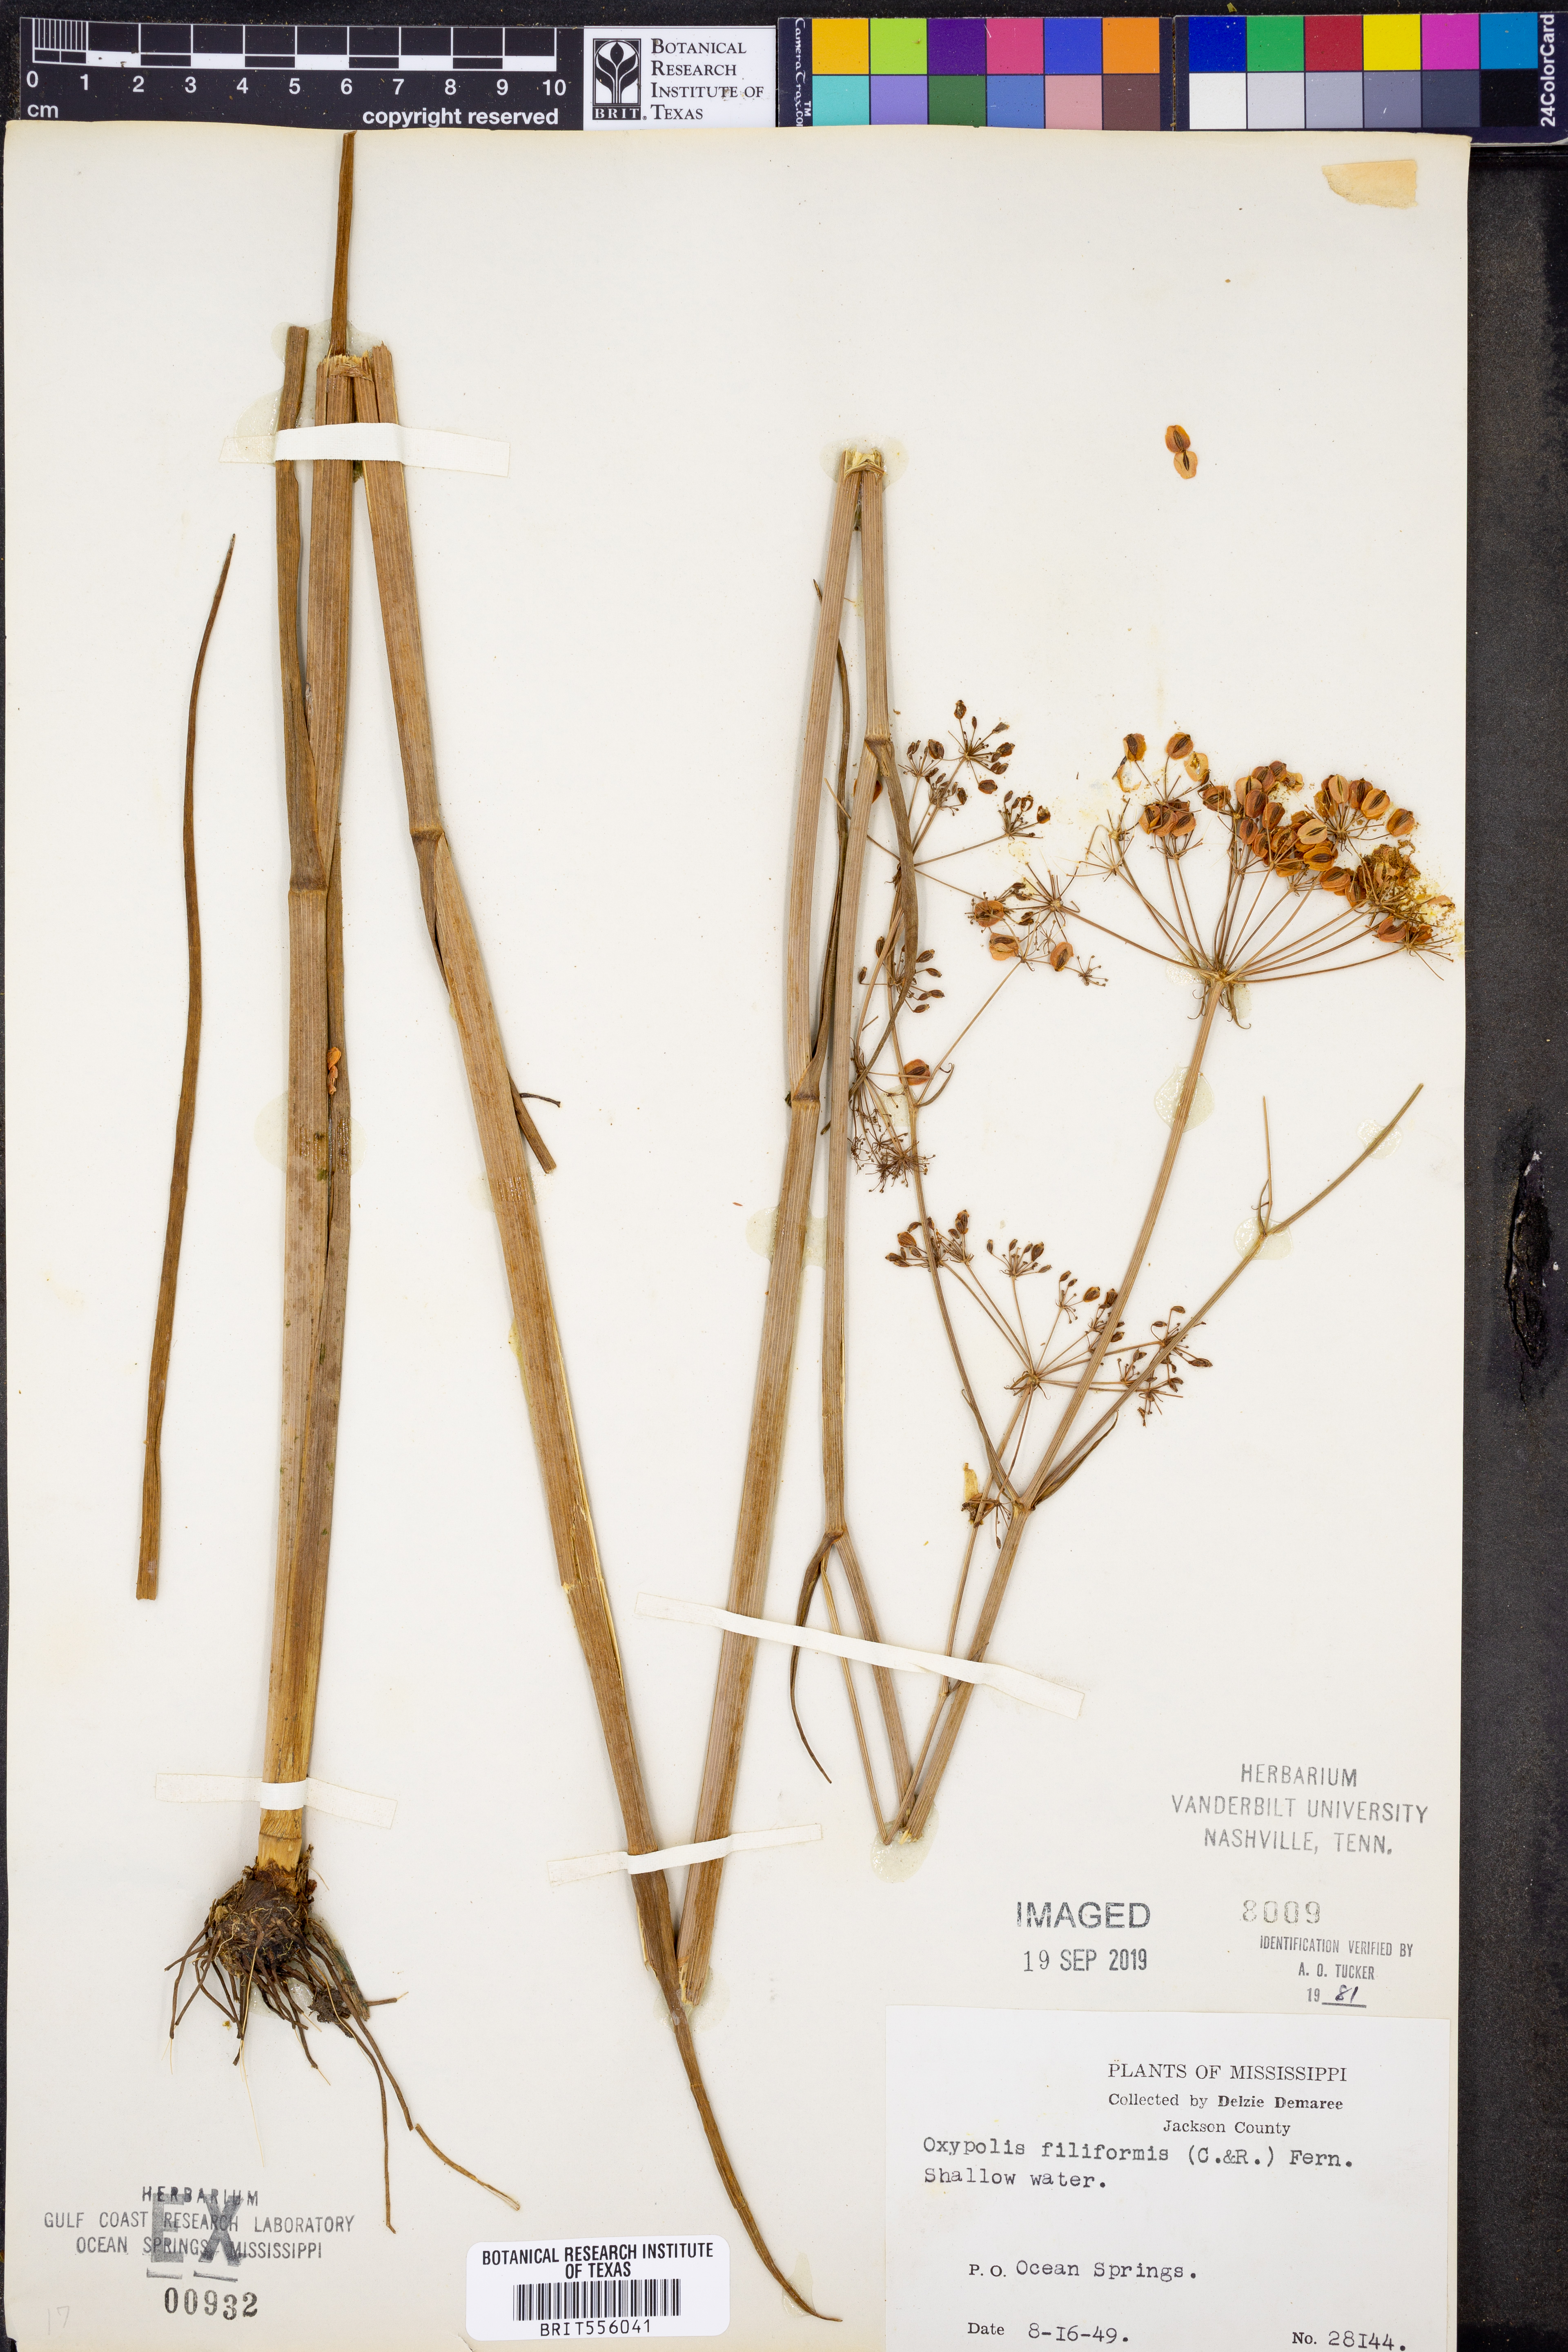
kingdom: Plantae
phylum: Tracheophyta
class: Magnoliopsida
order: Apiales
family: Apiaceae
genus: Tiedemannia
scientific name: Tiedemannia filiformis
